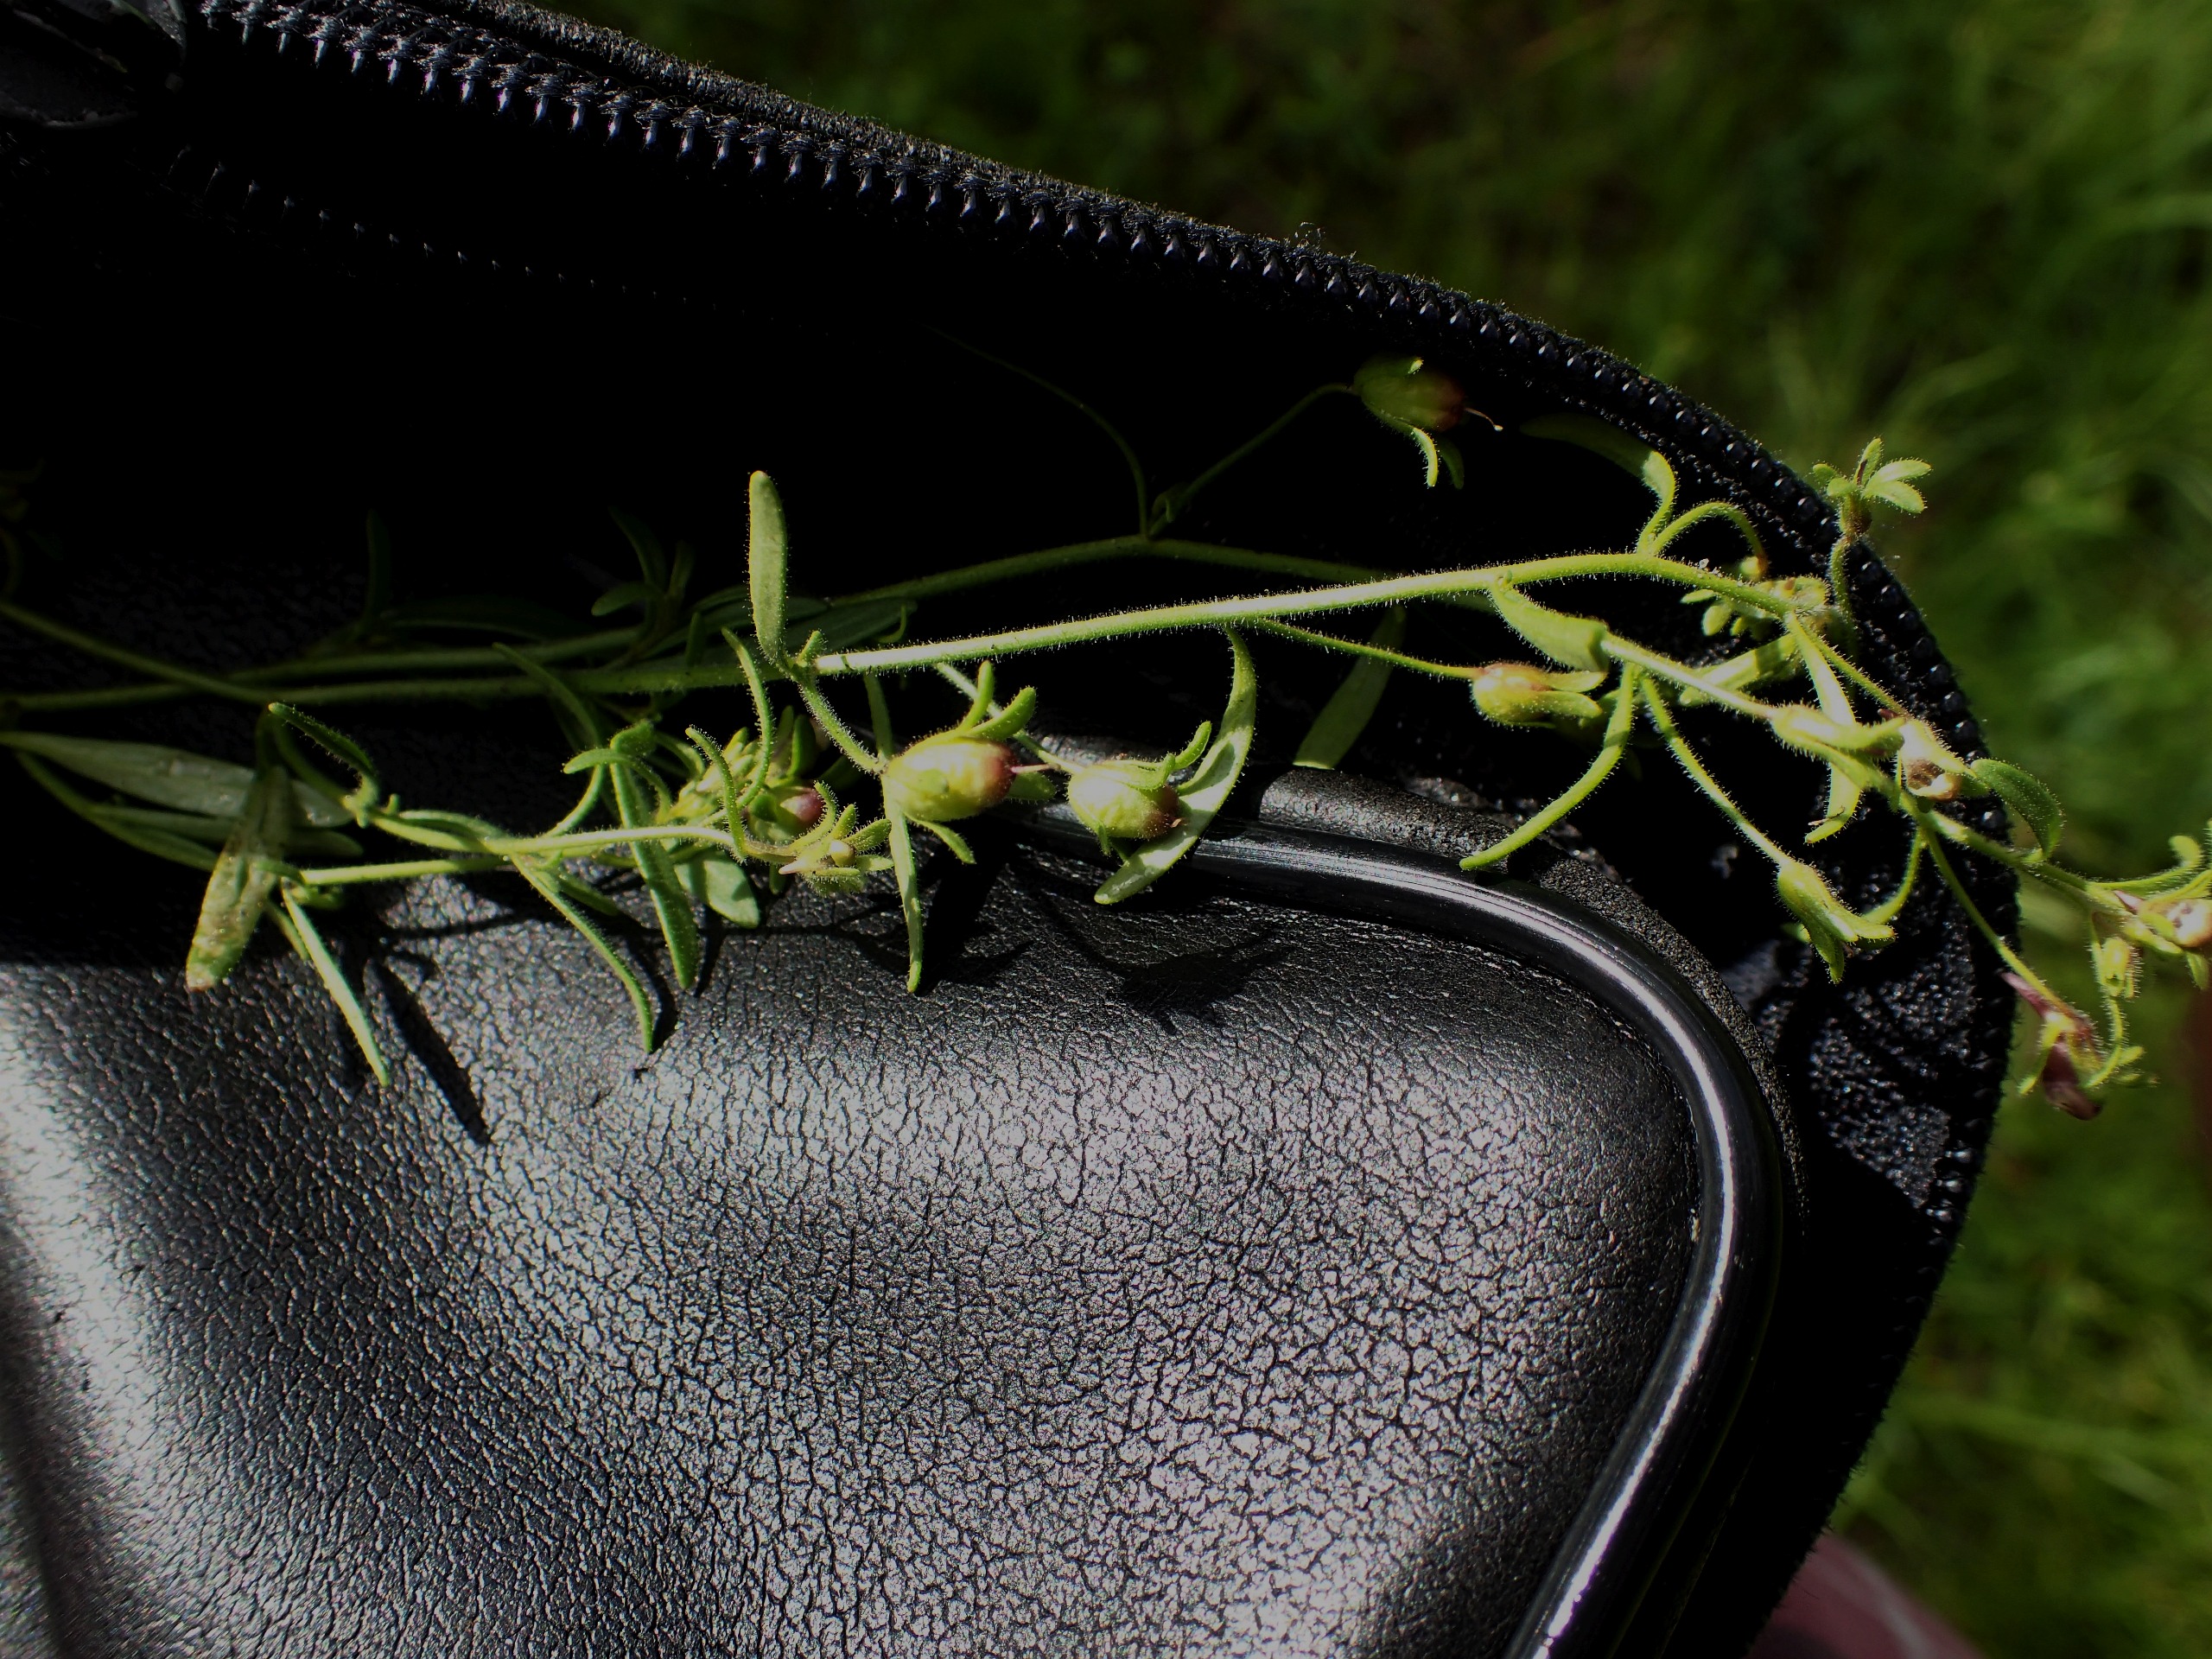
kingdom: Plantae
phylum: Tracheophyta
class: Magnoliopsida
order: Lamiales
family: Plantaginaceae
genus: Chaenorhinum
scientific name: Chaenorhinum minus
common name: Liden torskemund
